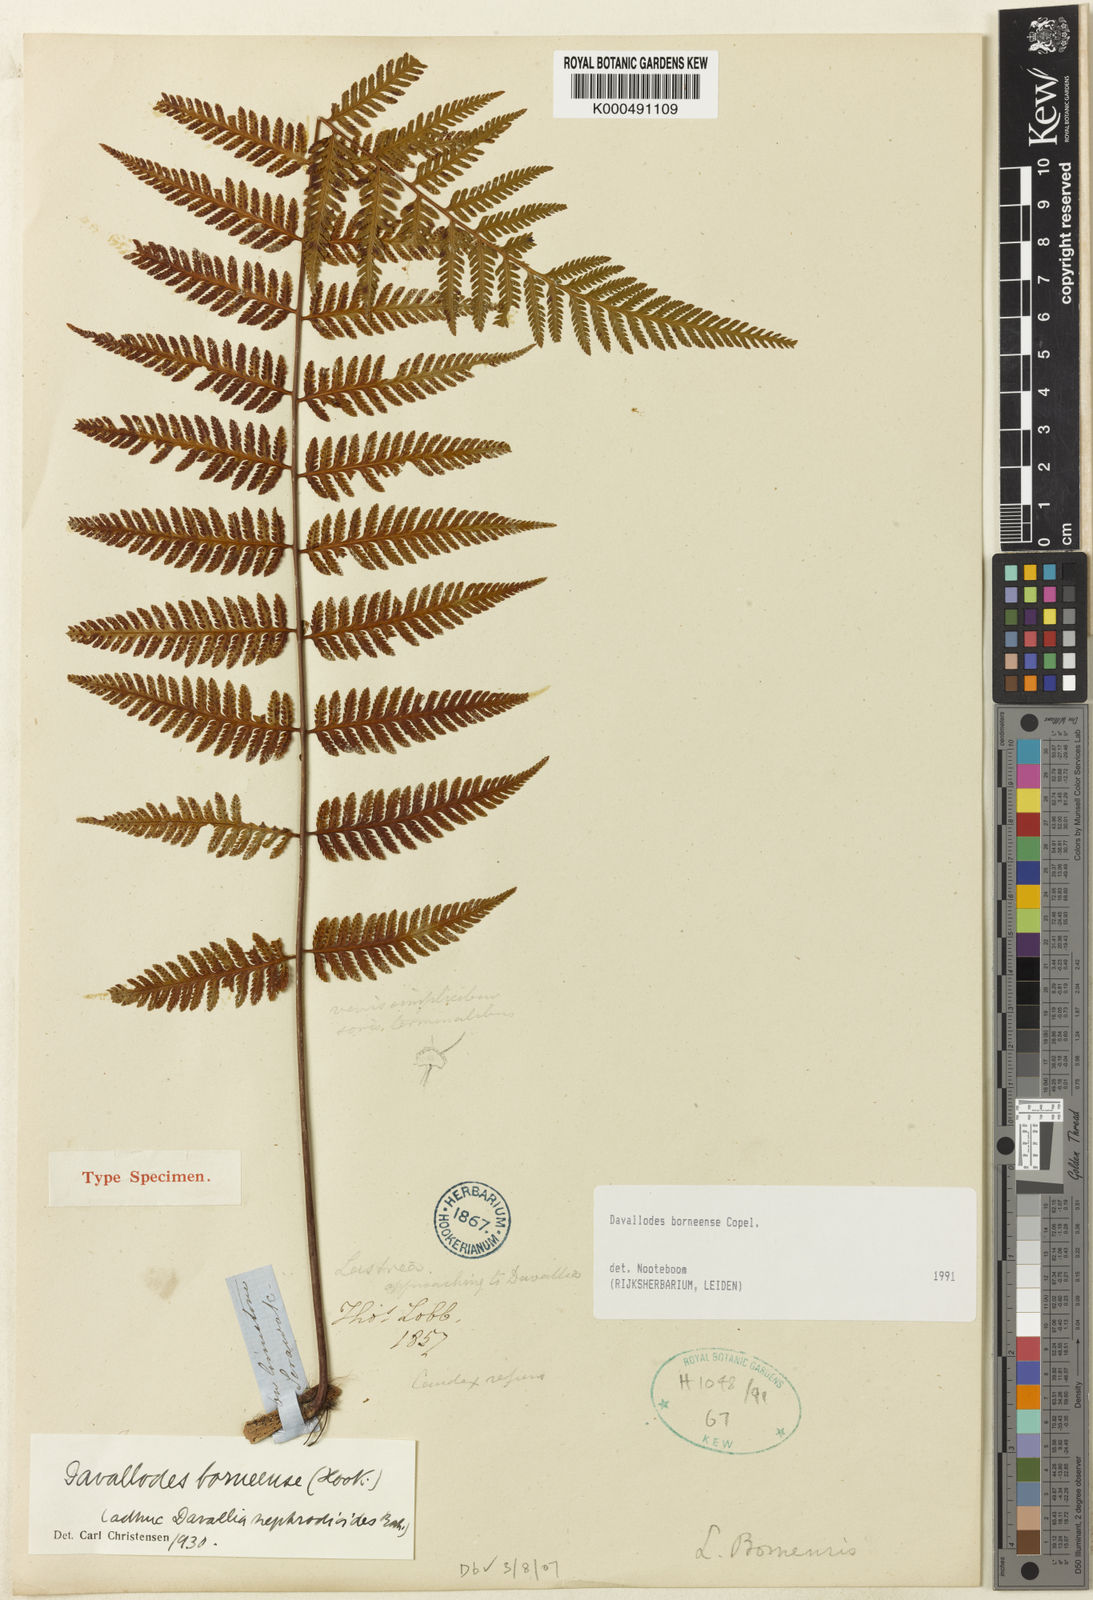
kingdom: Plantae
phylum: Tracheophyta
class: Polypodiopsida
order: Polypodiales
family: Davalliaceae
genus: Davallodes
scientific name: Davallodes borneensis
